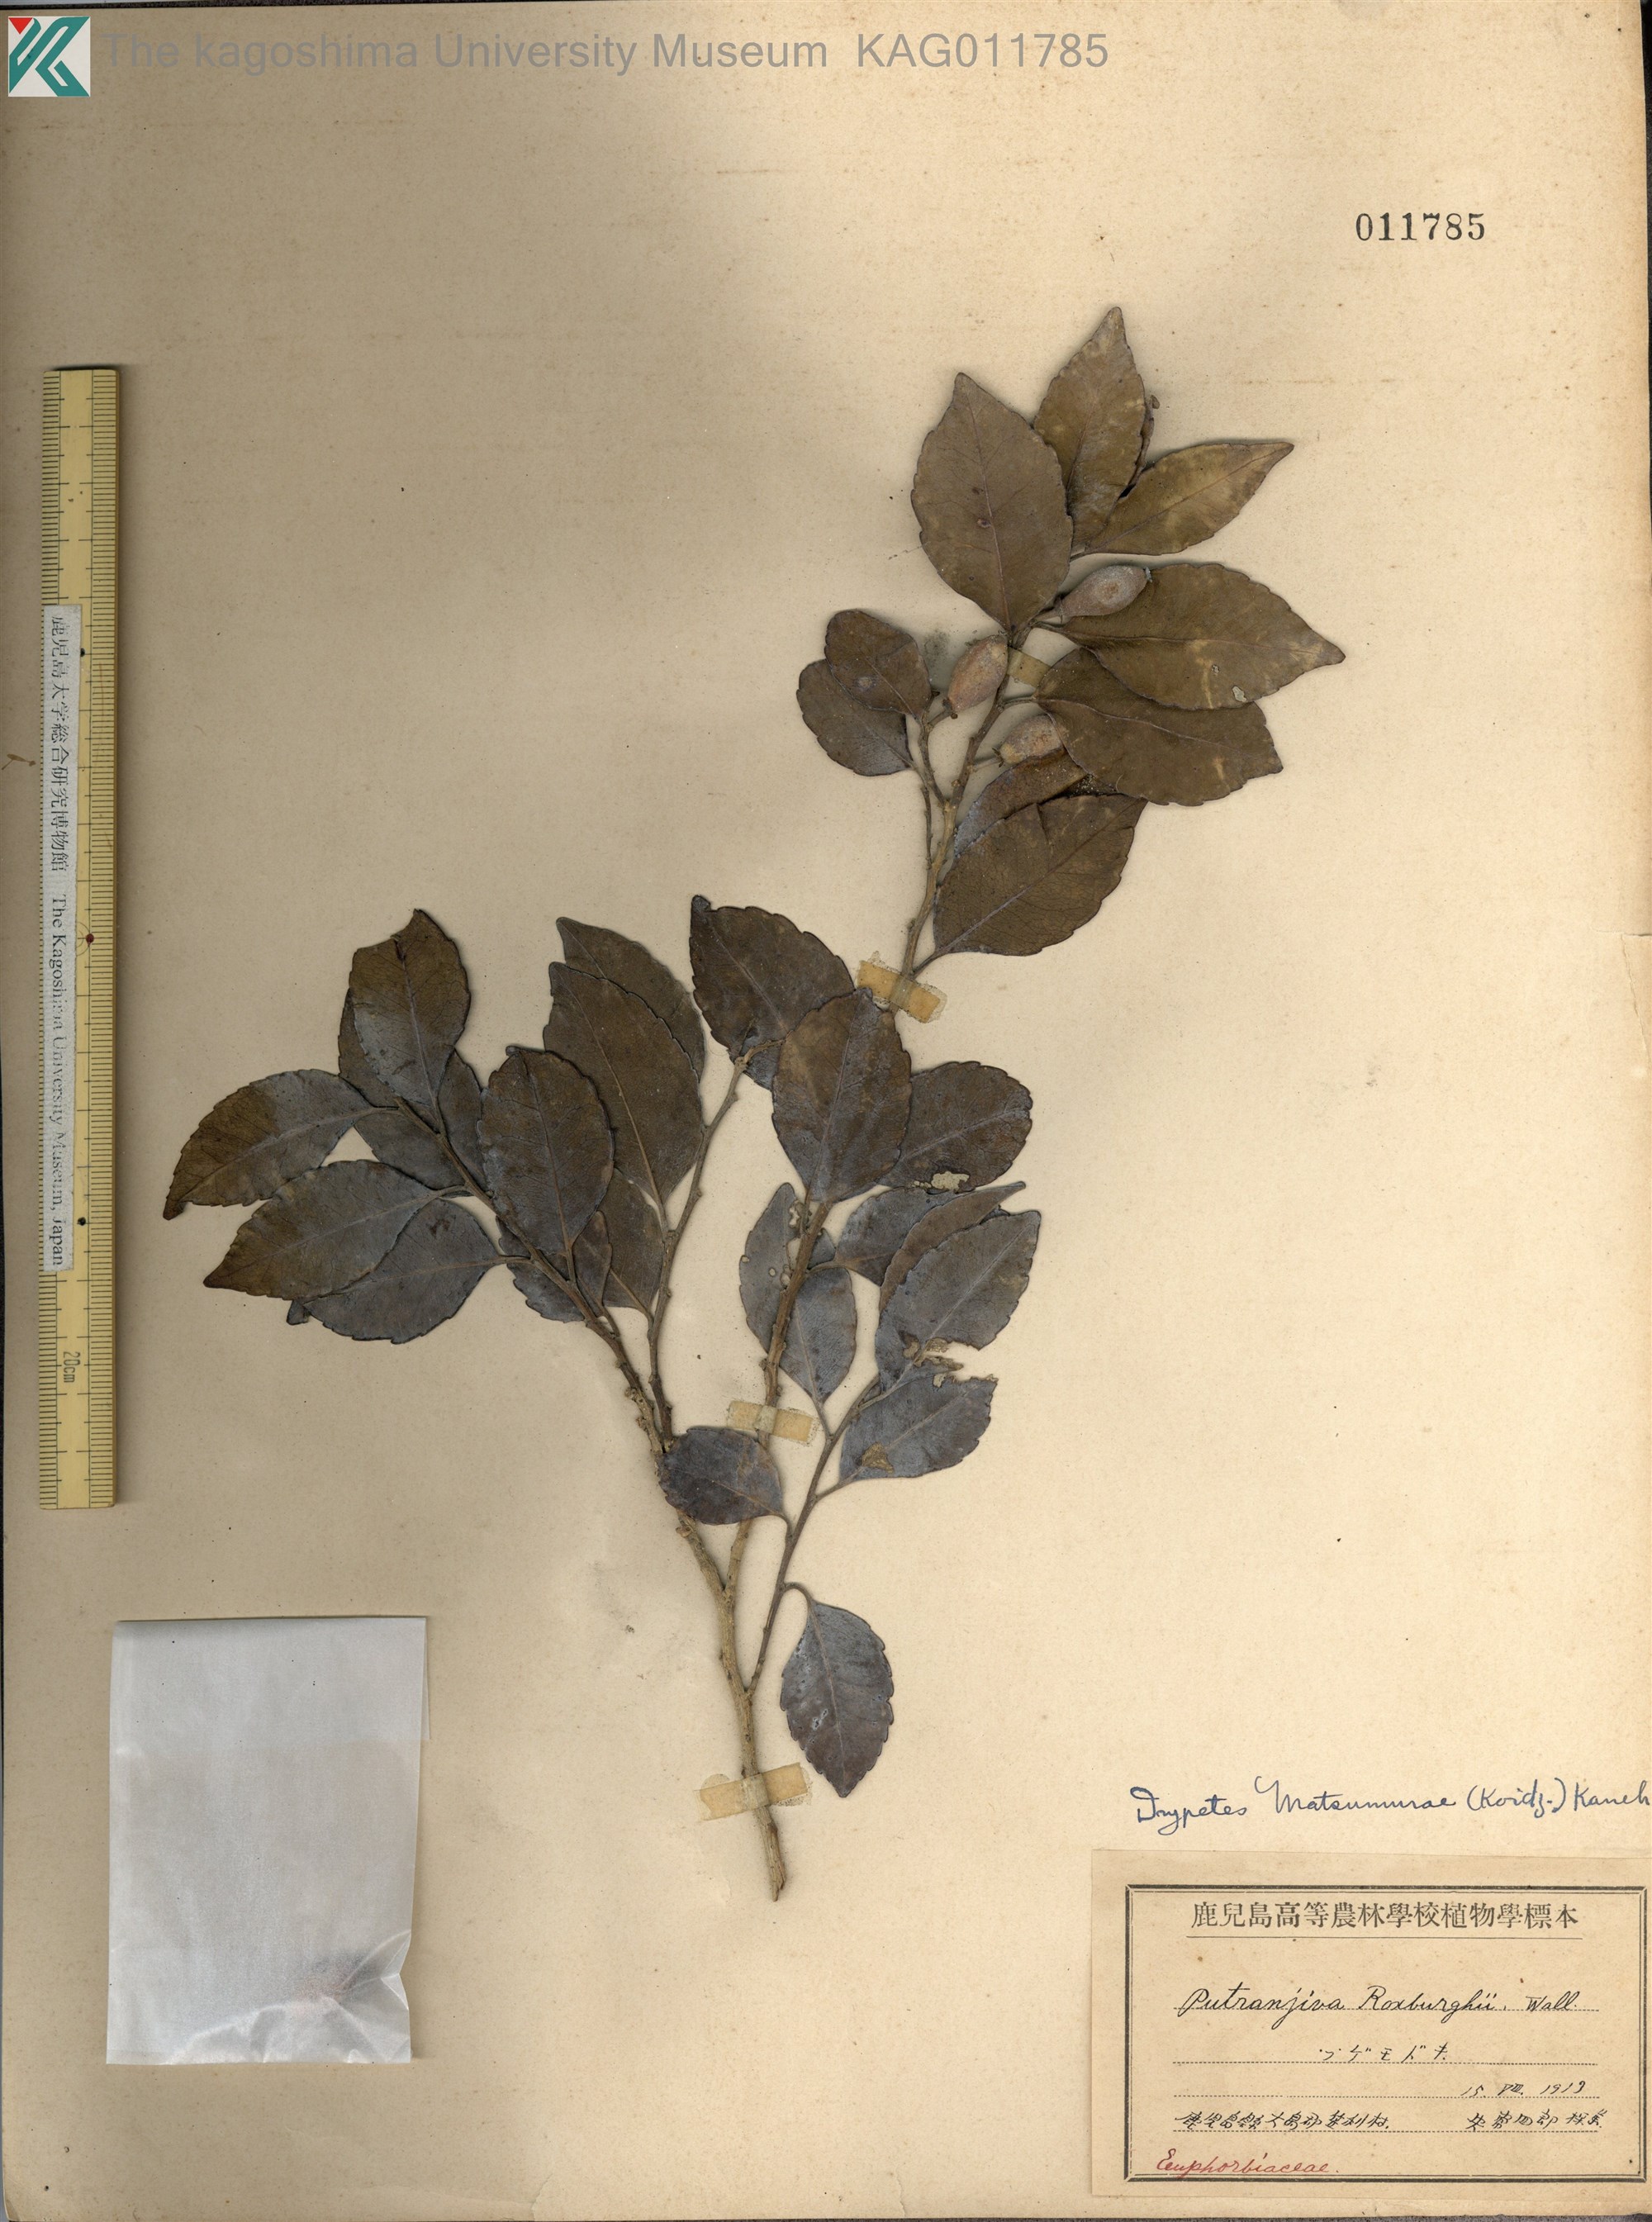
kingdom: Plantae
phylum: Tracheophyta
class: Magnoliopsida
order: Malpighiales
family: Putranjivaceae
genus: Putranjiva
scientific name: Putranjiva matsumurae
